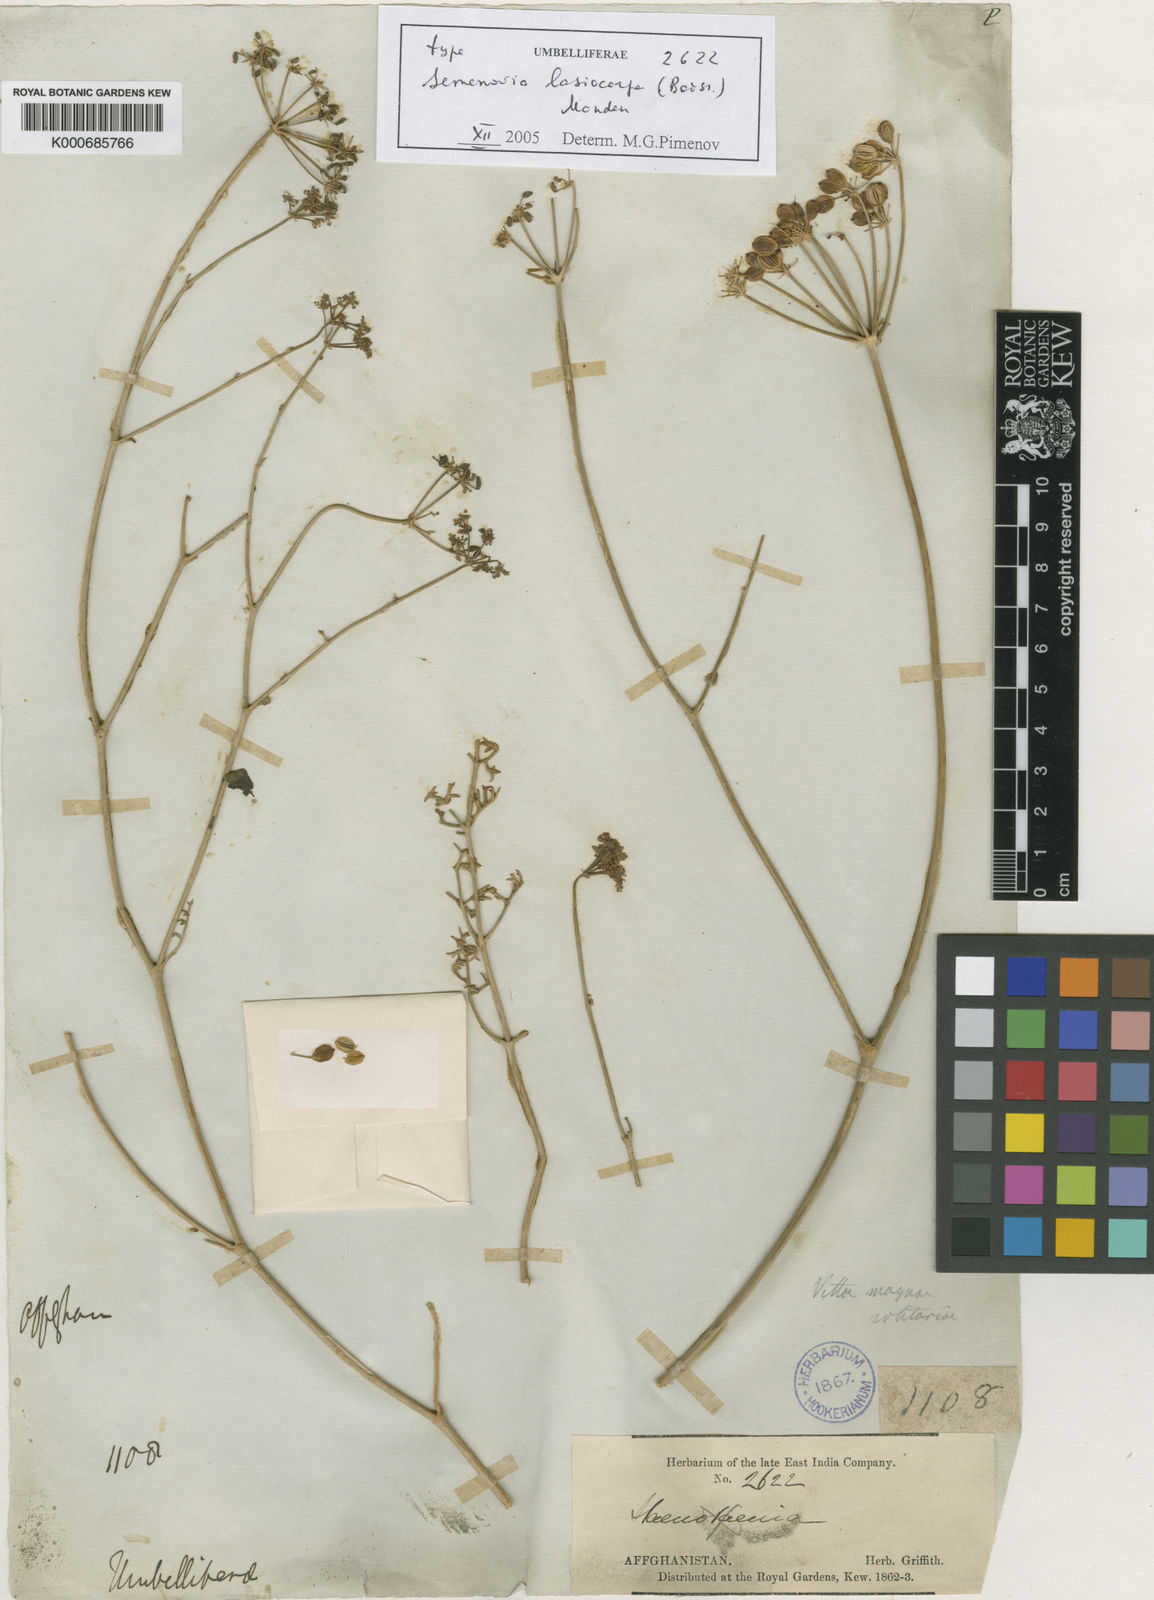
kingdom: Plantae
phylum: Tracheophyta
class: Magnoliopsida
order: Apiales
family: Apiaceae
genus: Semenovia
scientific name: Semenovia lasiocarpa
